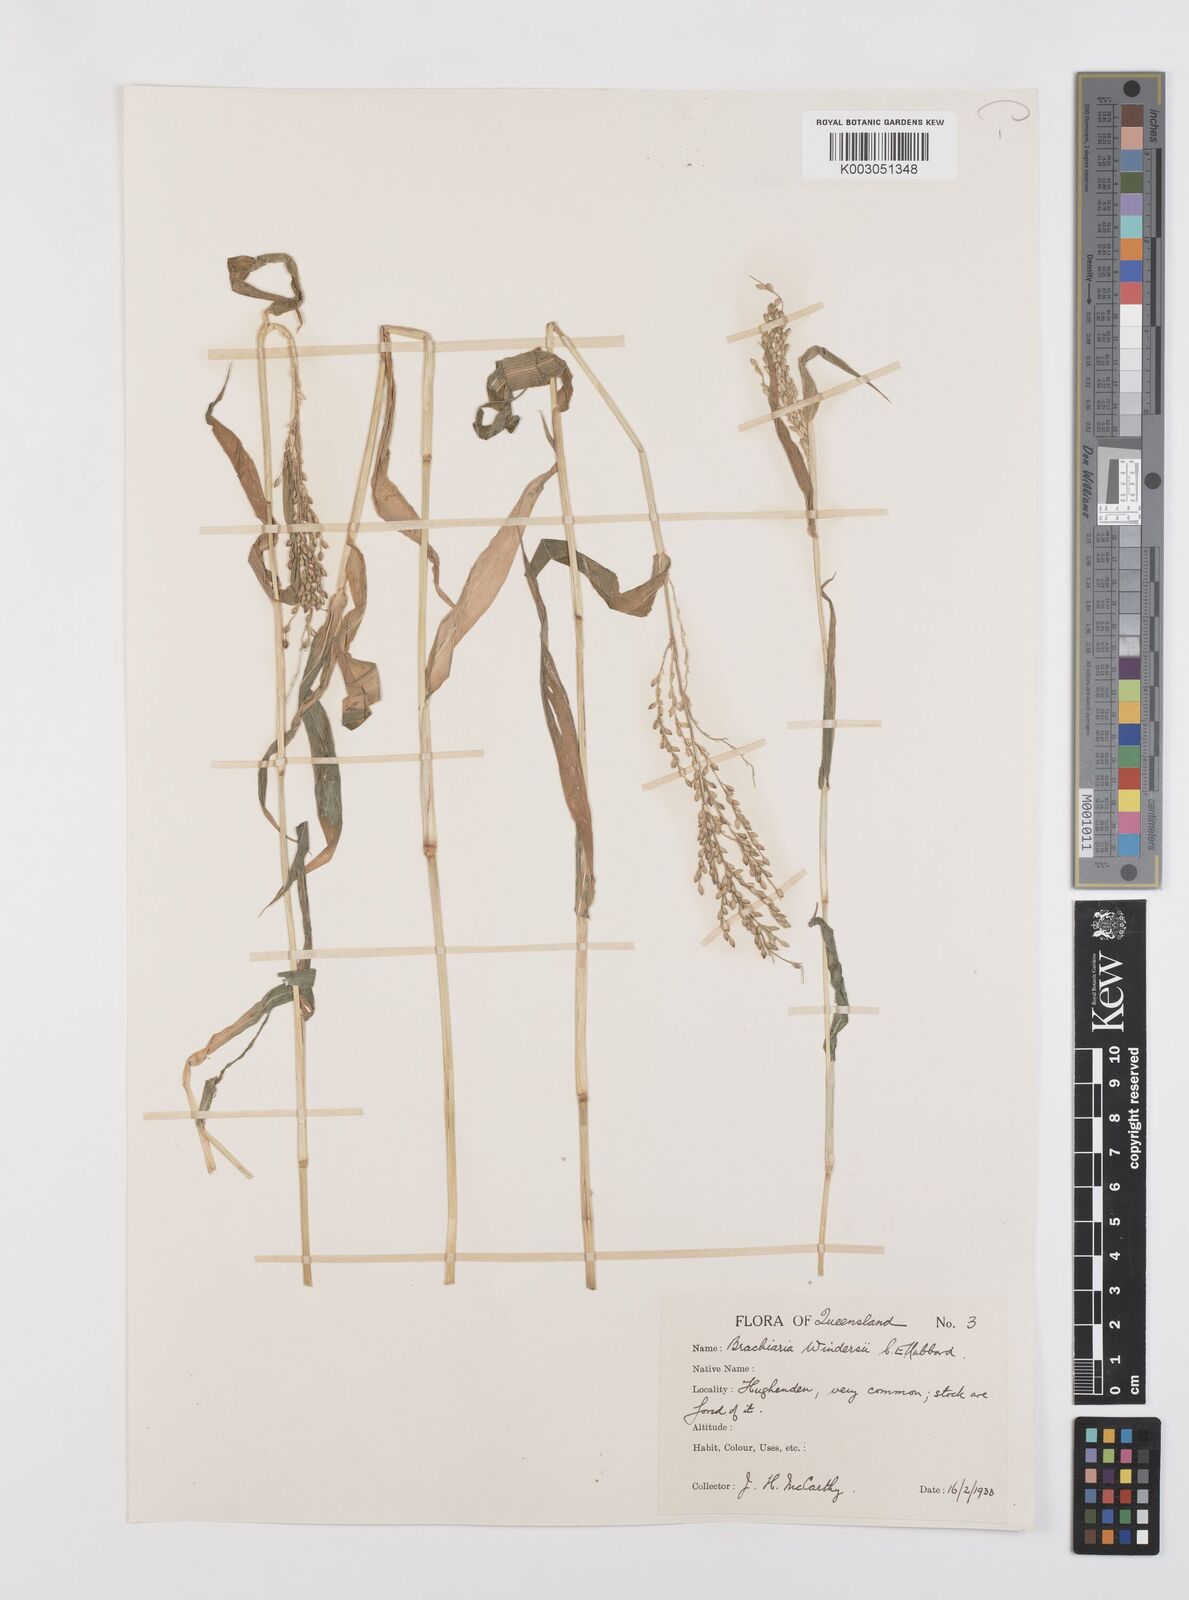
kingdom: Plantae
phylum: Tracheophyta
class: Liliopsida
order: Poales
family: Poaceae
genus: Urochloa
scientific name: Urochloa whiteana
